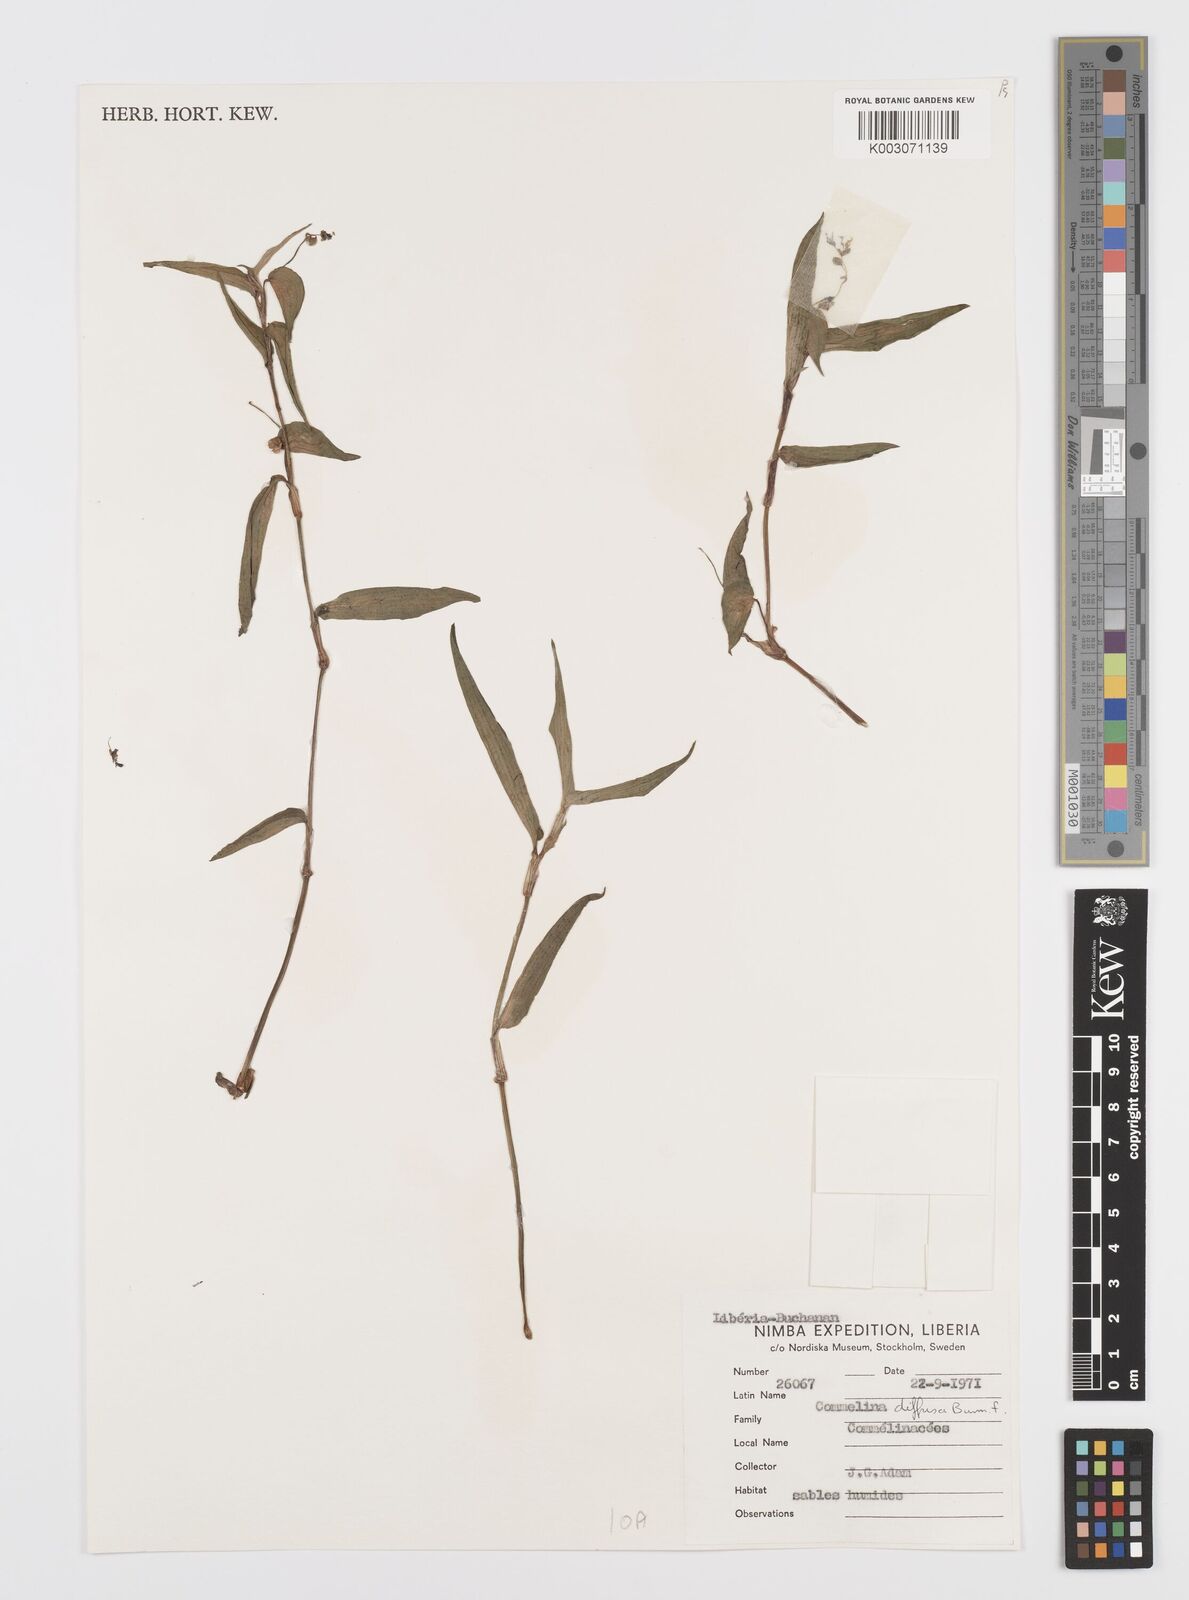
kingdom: Plantae
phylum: Tracheophyta
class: Liliopsida
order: Commelinales
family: Commelinaceae
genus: Commelina
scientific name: Commelina diffusa
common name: Climbing dayflower
